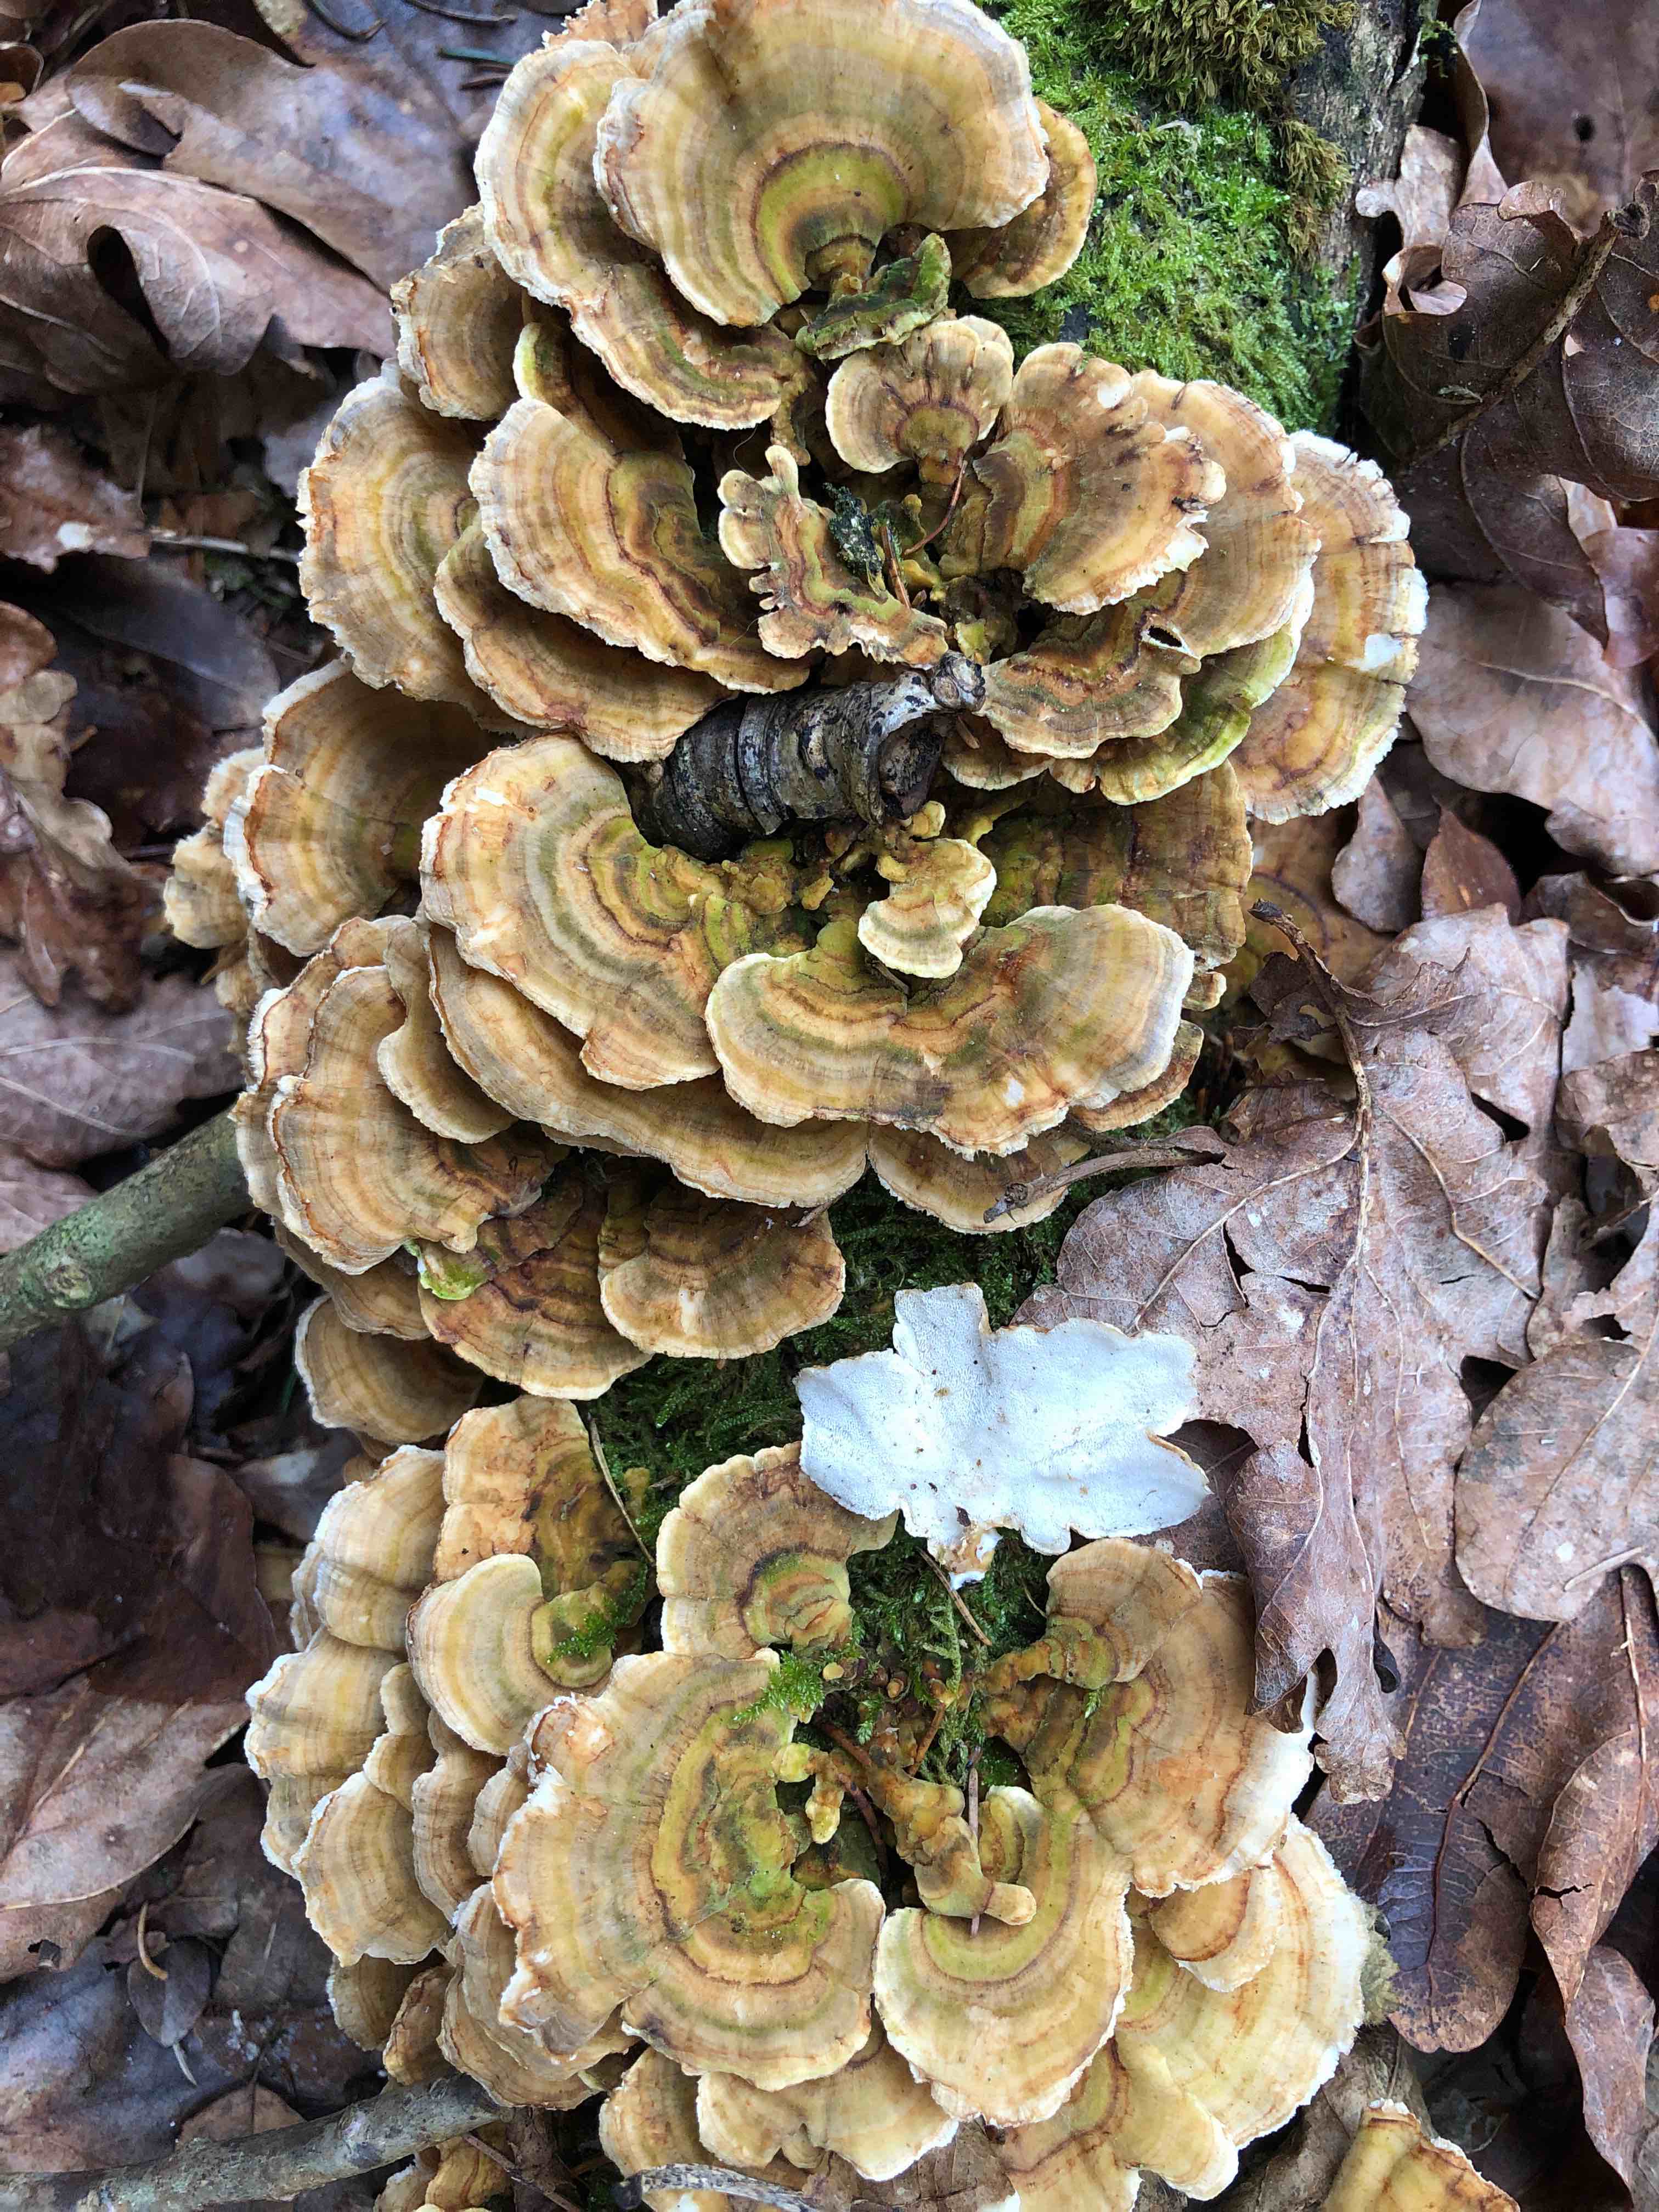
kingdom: Fungi
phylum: Basidiomycota
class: Agaricomycetes
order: Polyporales
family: Polyporaceae
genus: Trametes
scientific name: Trametes versicolor
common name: broget læderporesvamp
